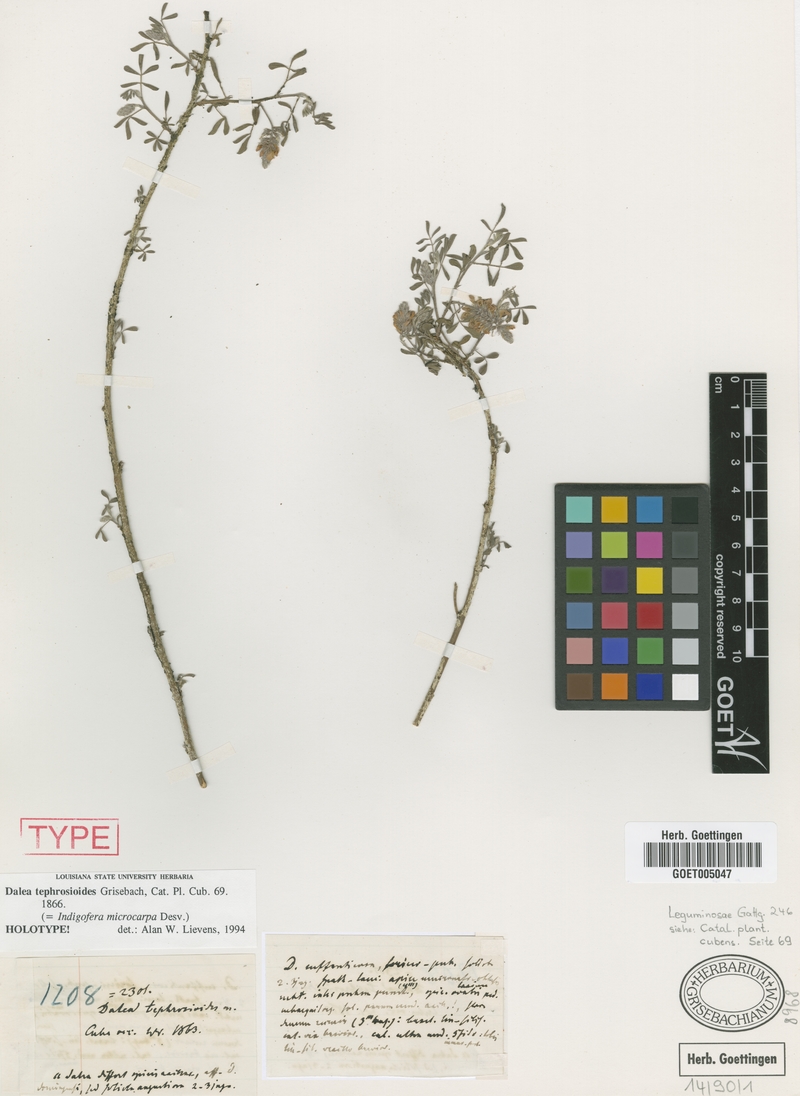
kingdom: Plantae
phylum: Tracheophyta
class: Magnoliopsida
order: Fabales
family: Fabaceae
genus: Indigofera
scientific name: Indigofera microcarpa
